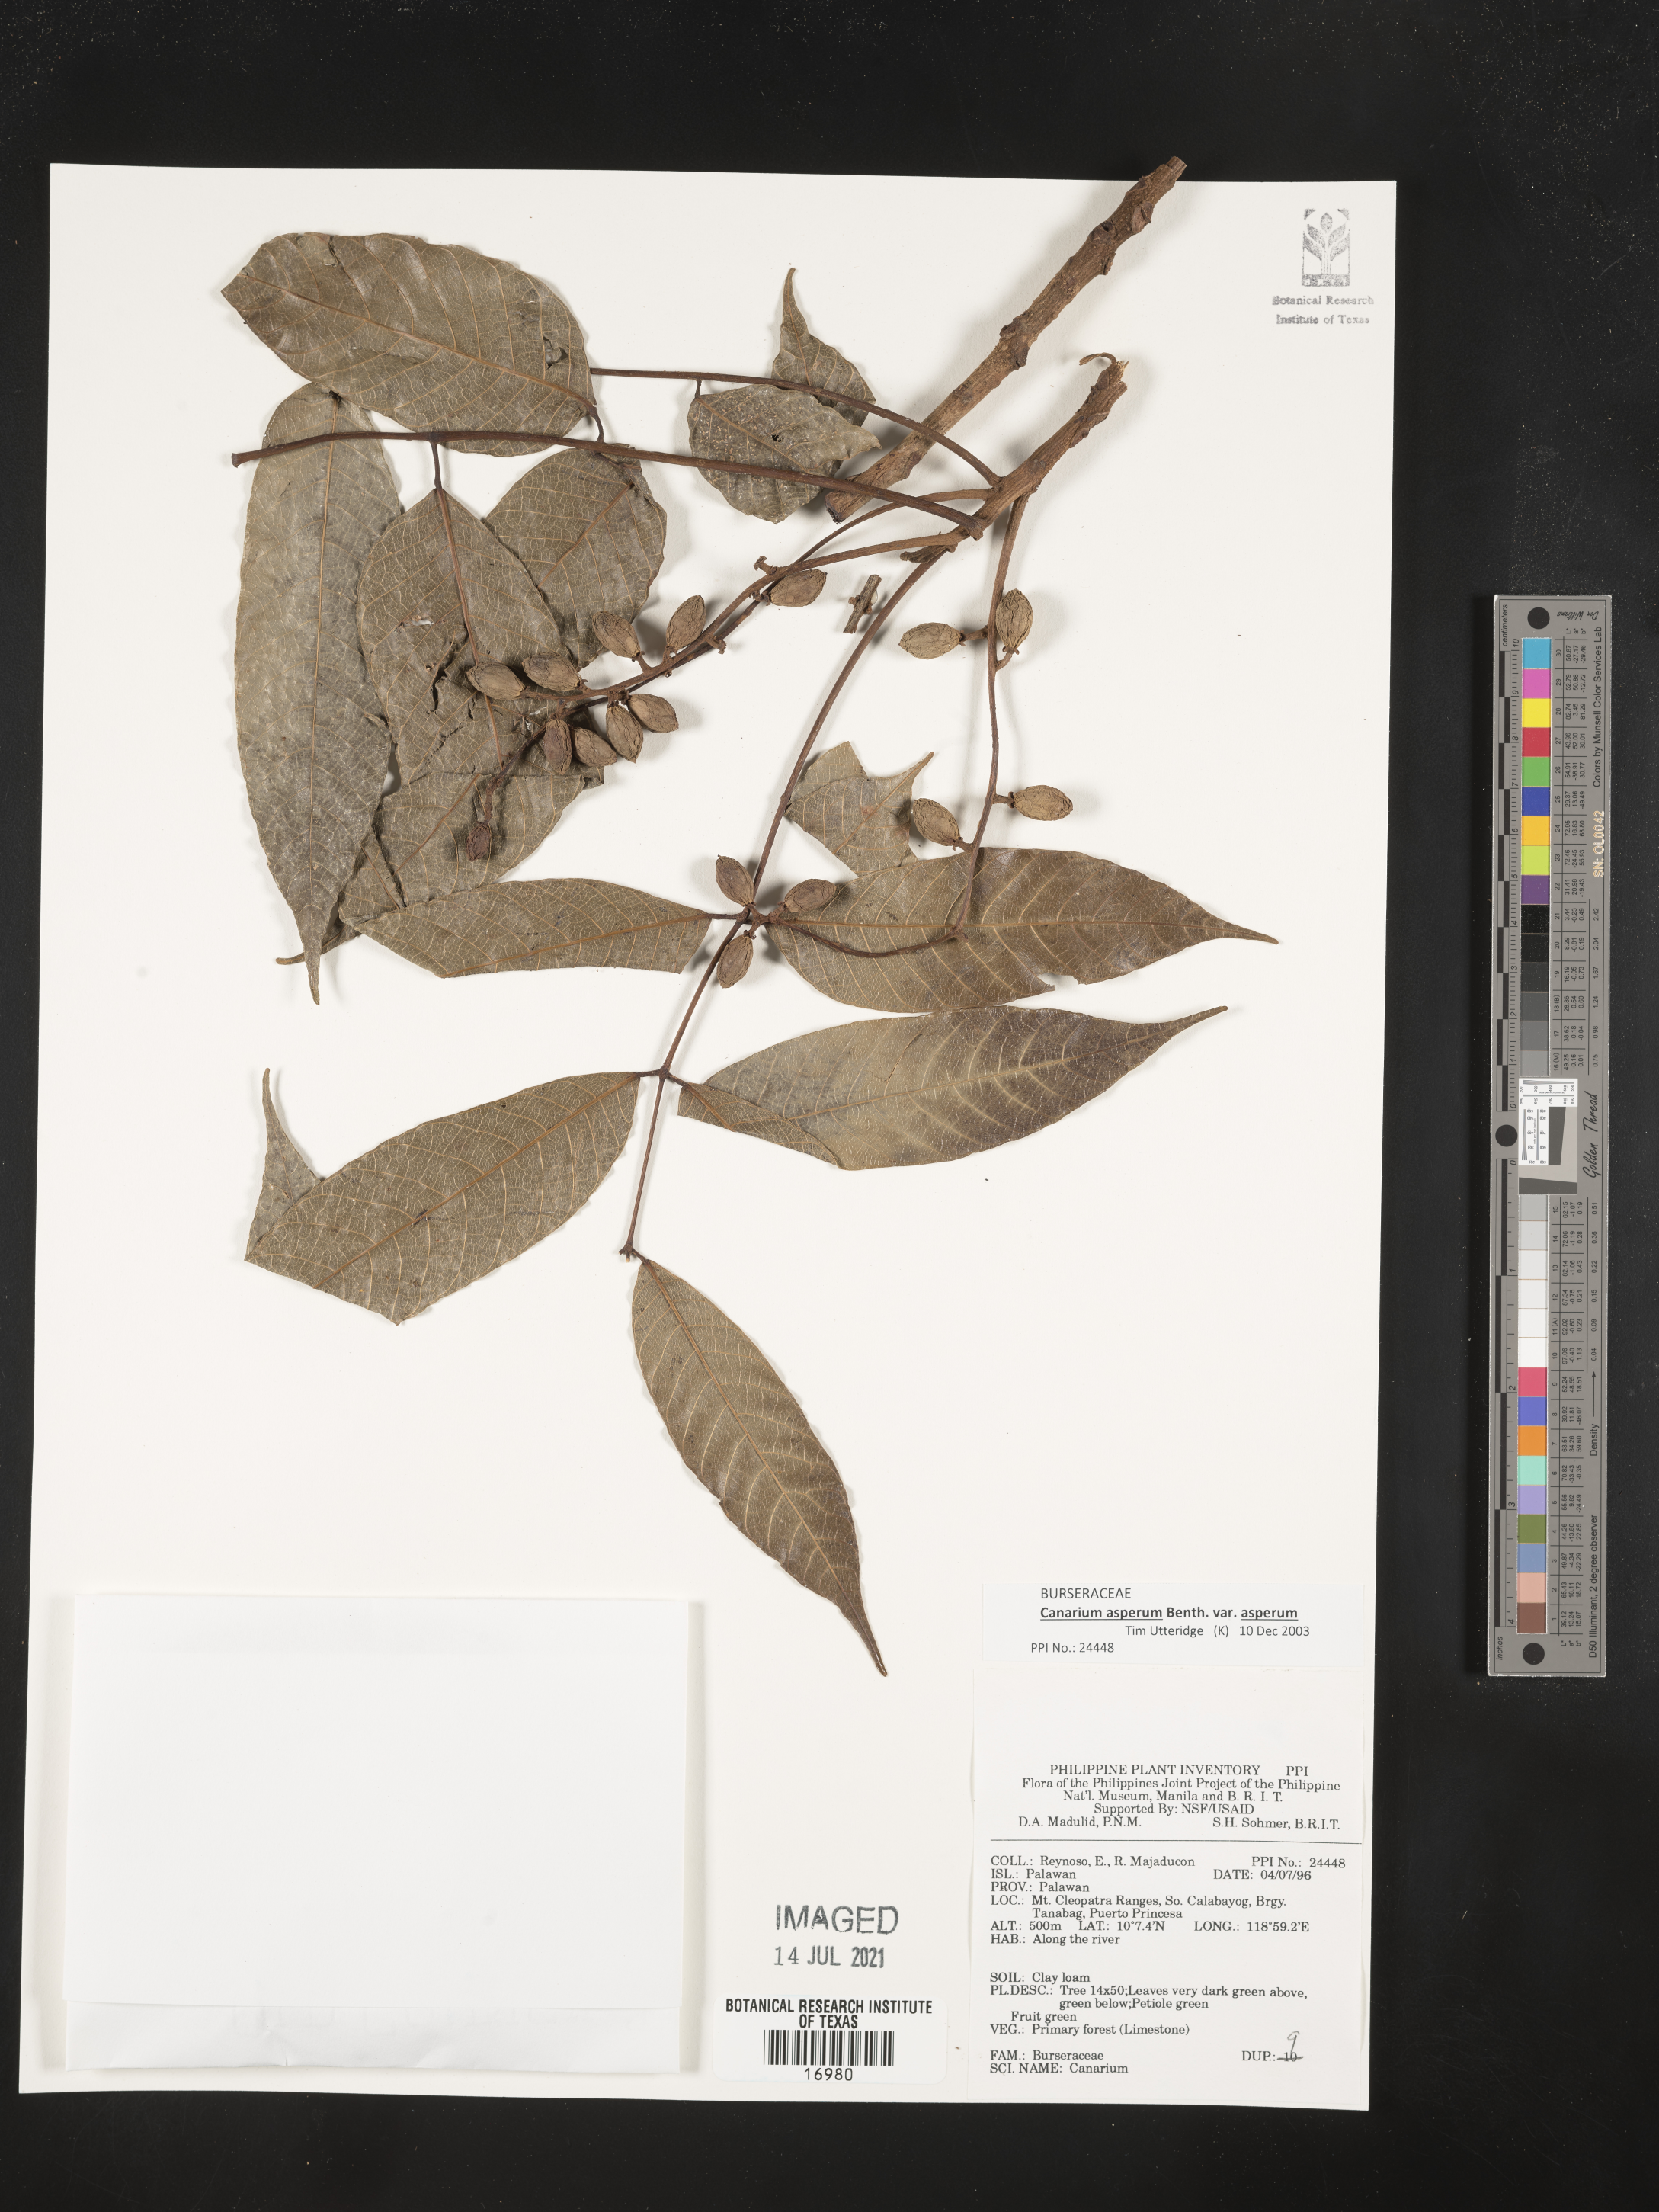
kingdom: Plantae
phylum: Tracheophyta
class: Magnoliopsida
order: Sapindales
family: Burseraceae
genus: Canarium
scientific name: Canarium asperum
